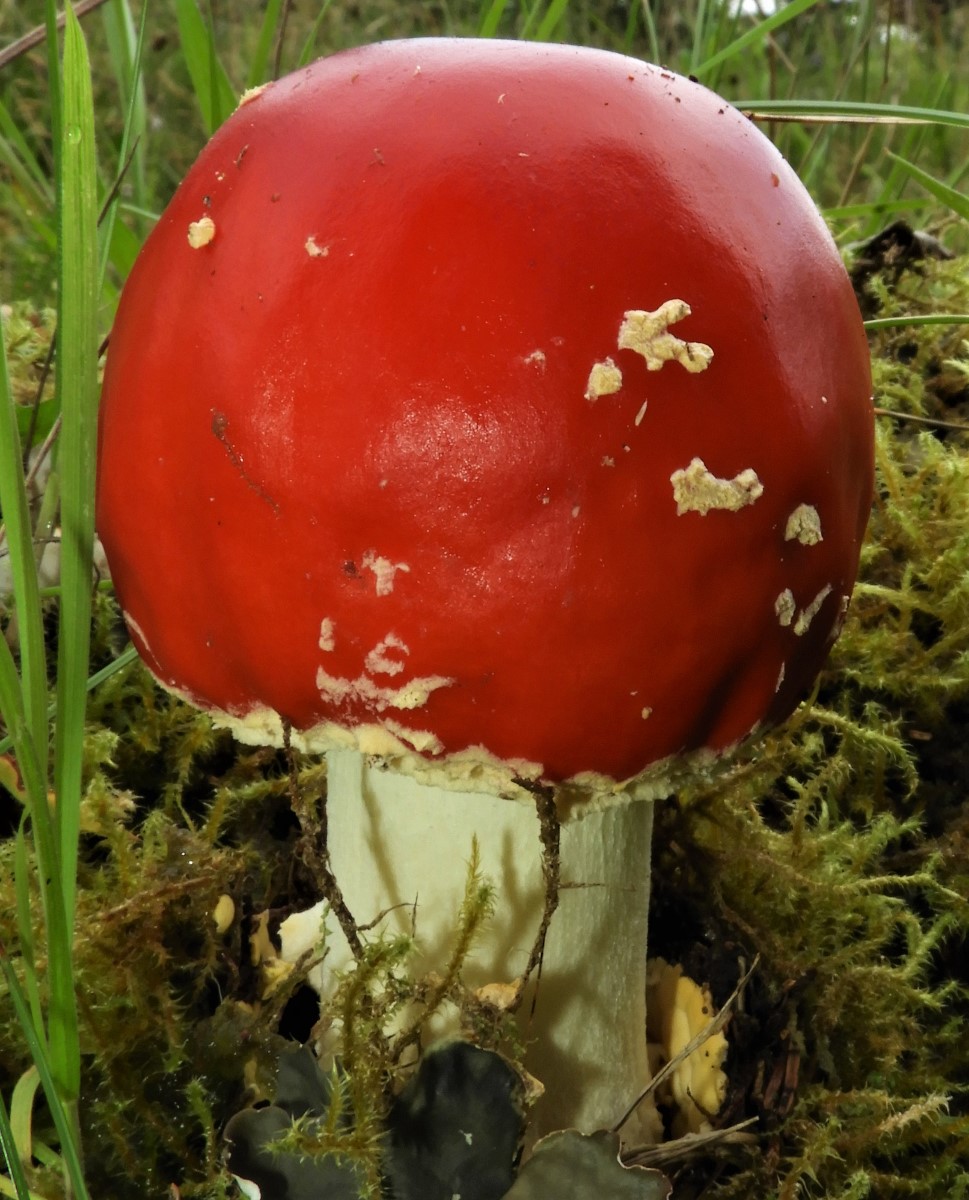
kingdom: Fungi
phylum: Basidiomycota
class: Agaricomycetes
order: Agaricales
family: Amanitaceae
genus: Amanita
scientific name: Amanita muscaria
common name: rød fluesvamp
